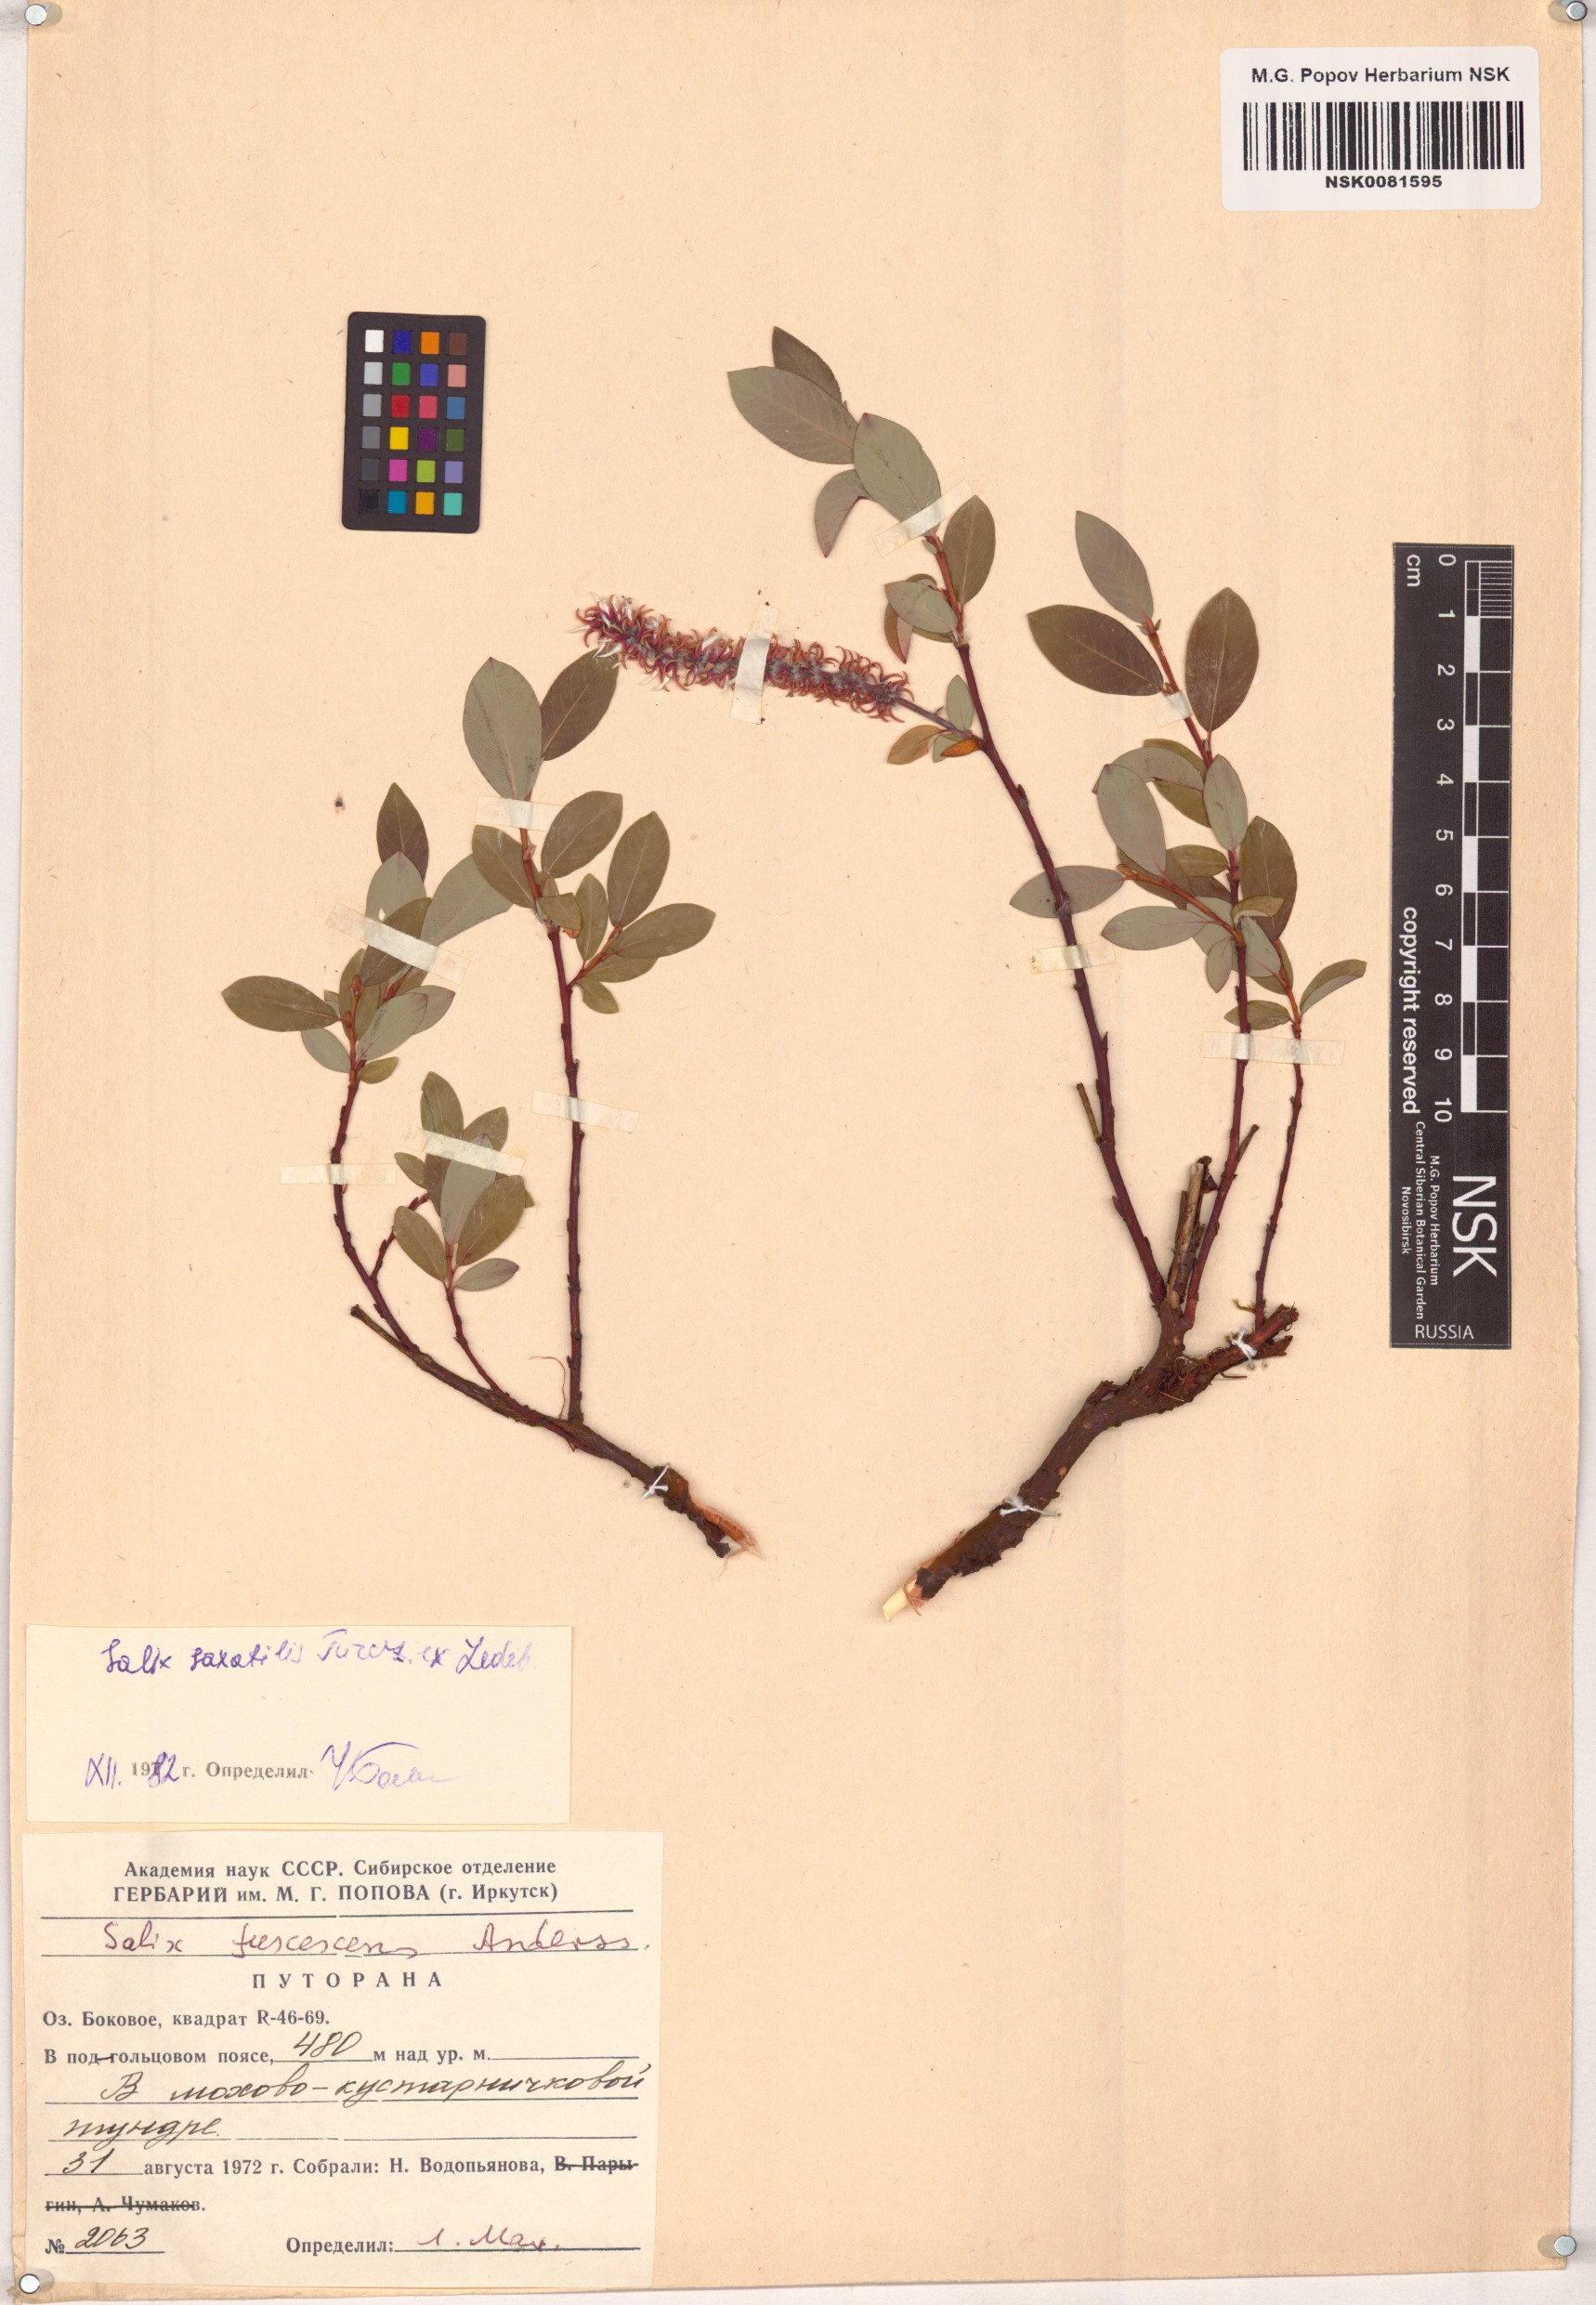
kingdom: Plantae
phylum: Tracheophyta
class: Magnoliopsida
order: Malpighiales
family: Salicaceae
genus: Salix
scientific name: Salix saxatilis
